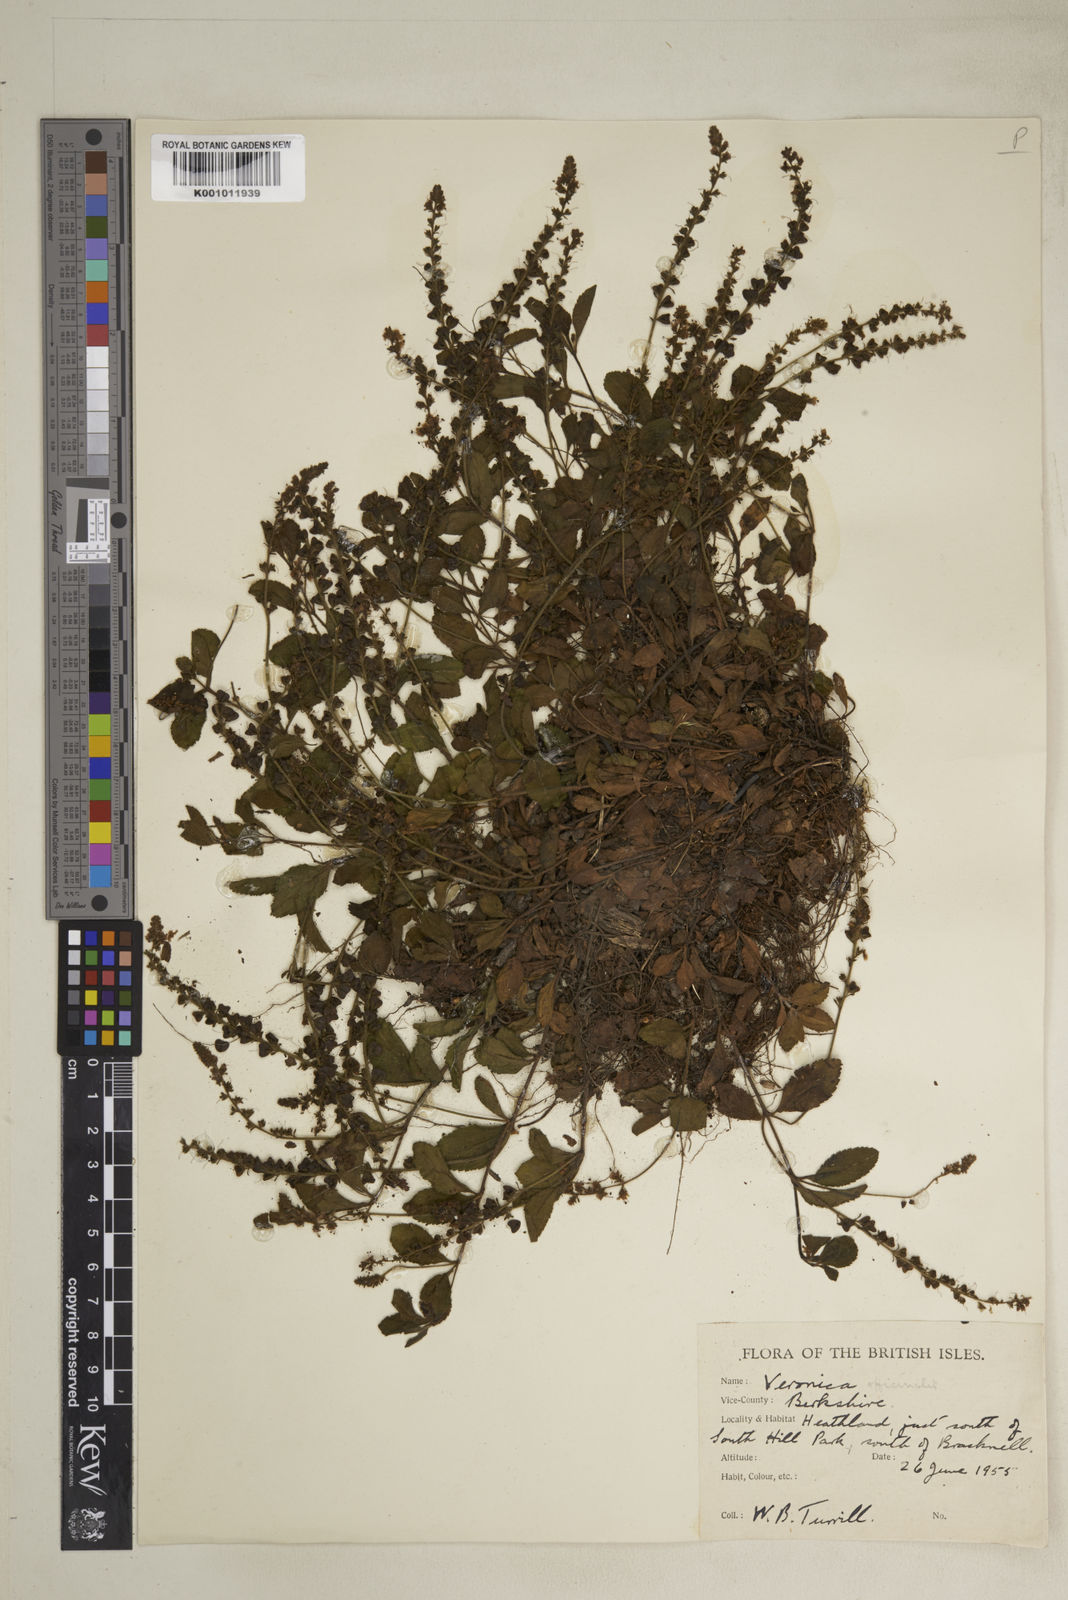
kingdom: Plantae
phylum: Tracheophyta
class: Magnoliopsida
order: Lamiales
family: Plantaginaceae
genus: Veronica
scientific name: Veronica officinalis
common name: Common speedwell
